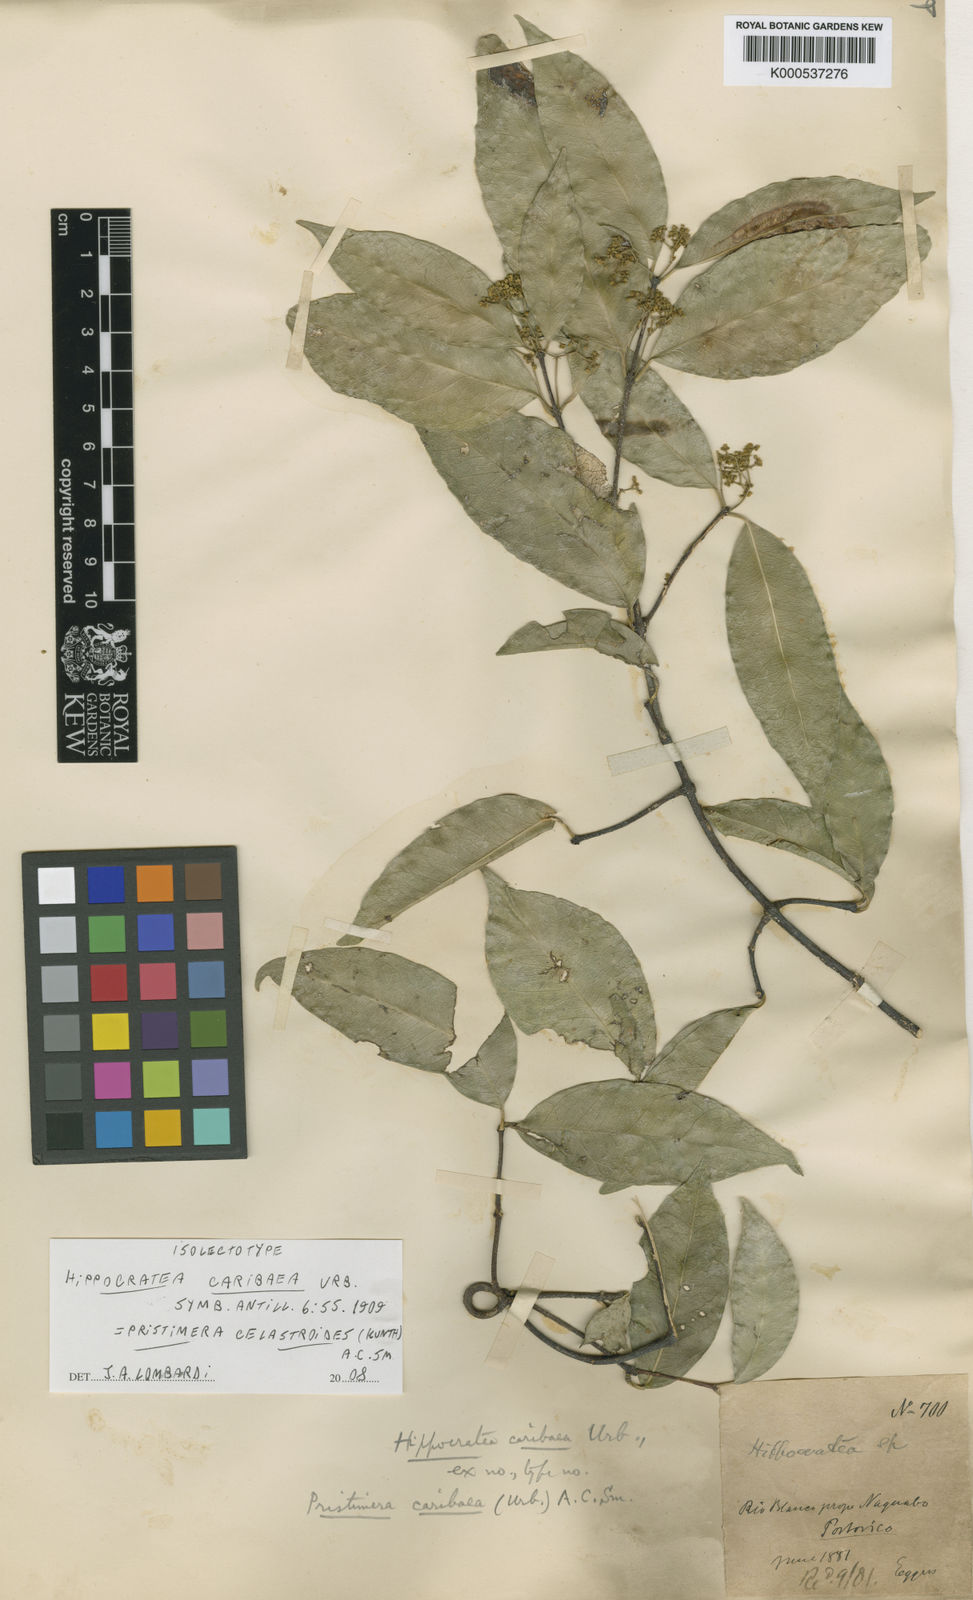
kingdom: Plantae
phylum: Tracheophyta
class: Magnoliopsida
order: Celastrales
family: Celastraceae
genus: Pristimera
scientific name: Pristimera celastroides
